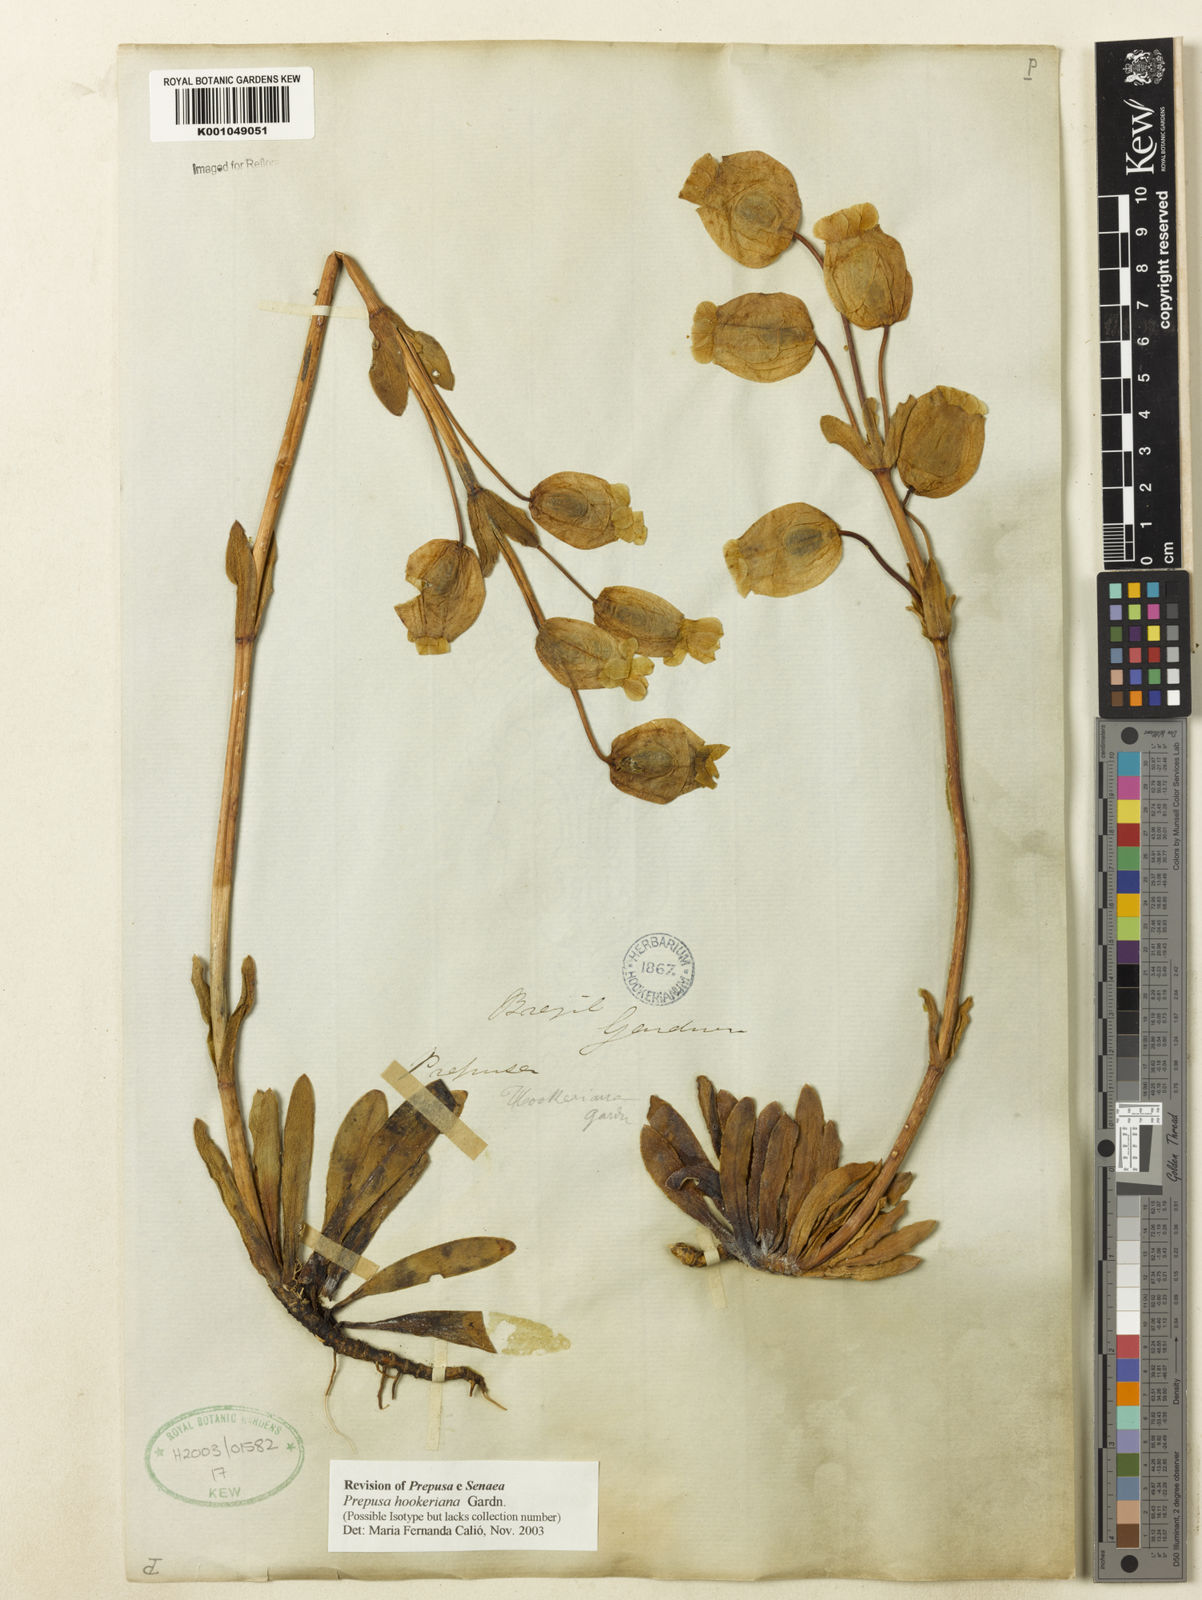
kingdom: Plantae
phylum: Tracheophyta
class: Magnoliopsida
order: Gentianales
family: Gentianaceae
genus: Prepusa
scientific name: Prepusa hookeriana
